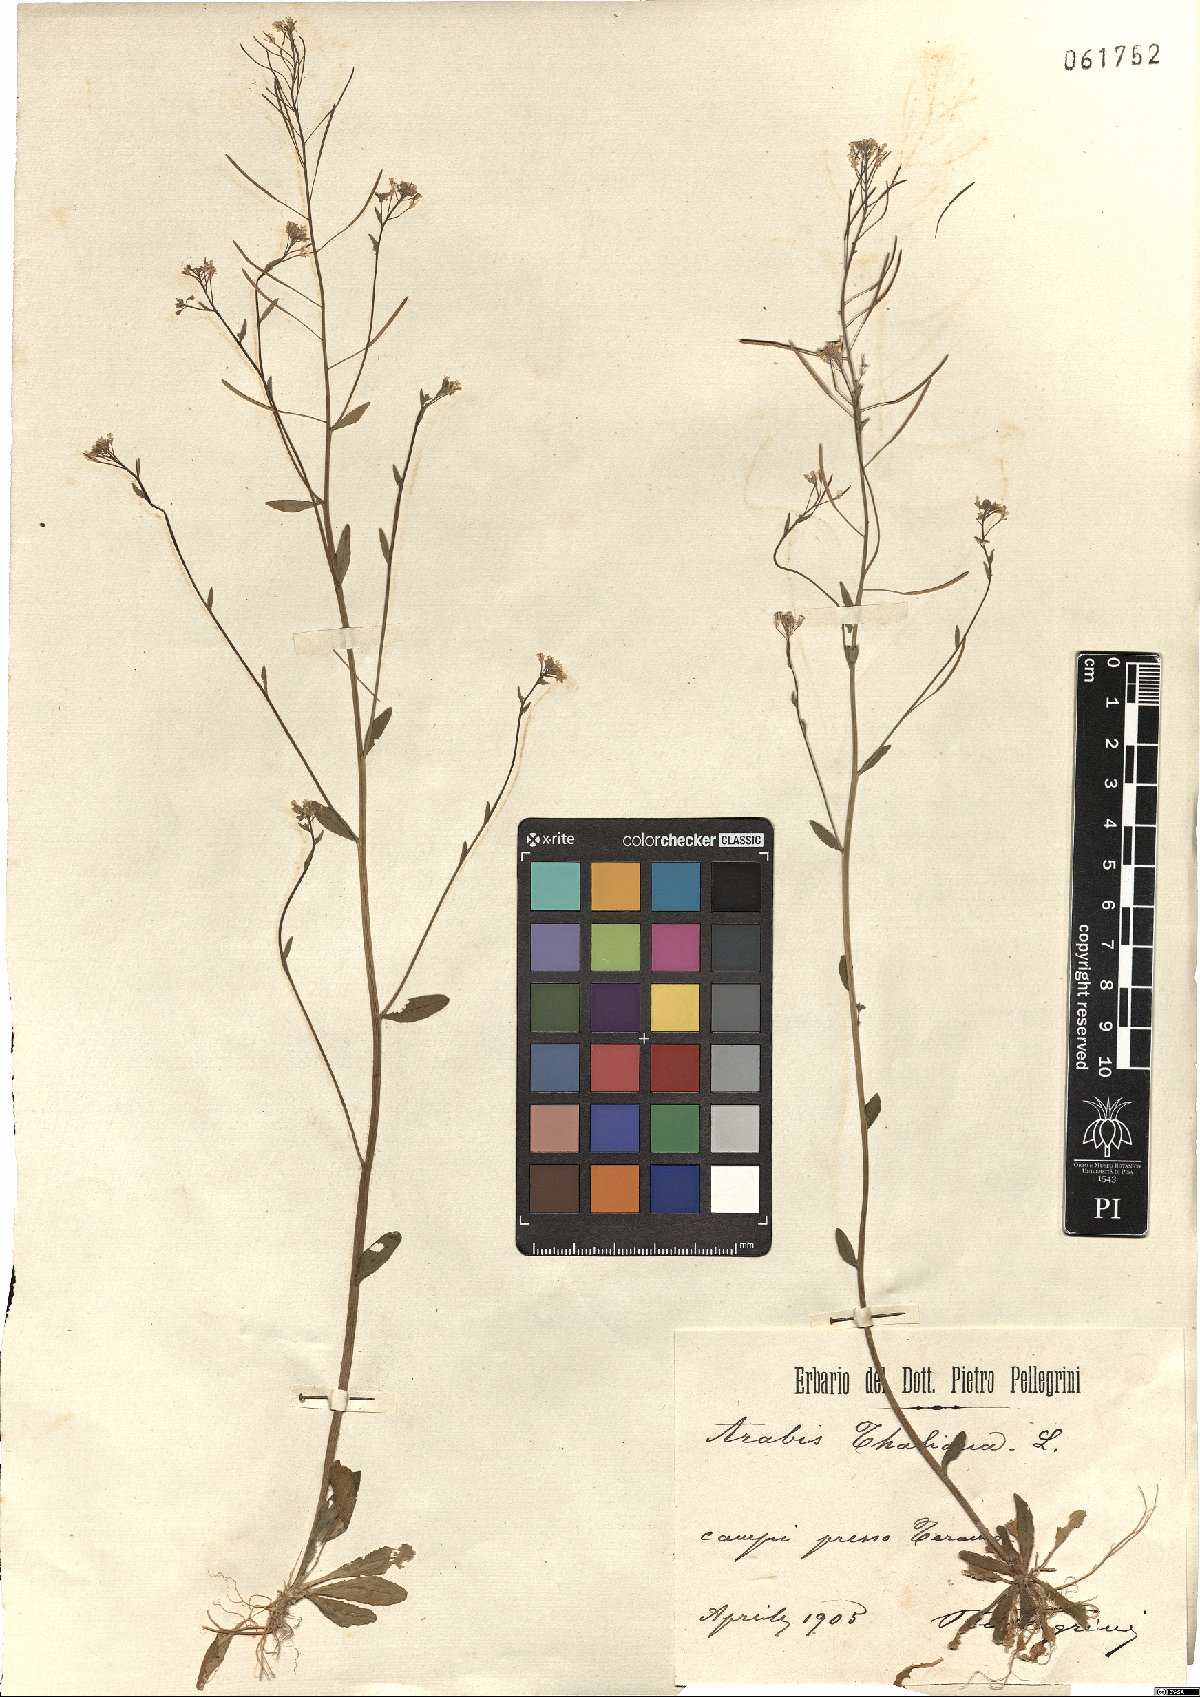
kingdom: Plantae
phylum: Tracheophyta
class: Magnoliopsida
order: Brassicales
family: Brassicaceae
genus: Arabidopsis
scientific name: Arabidopsis thaliana
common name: Thale cress
